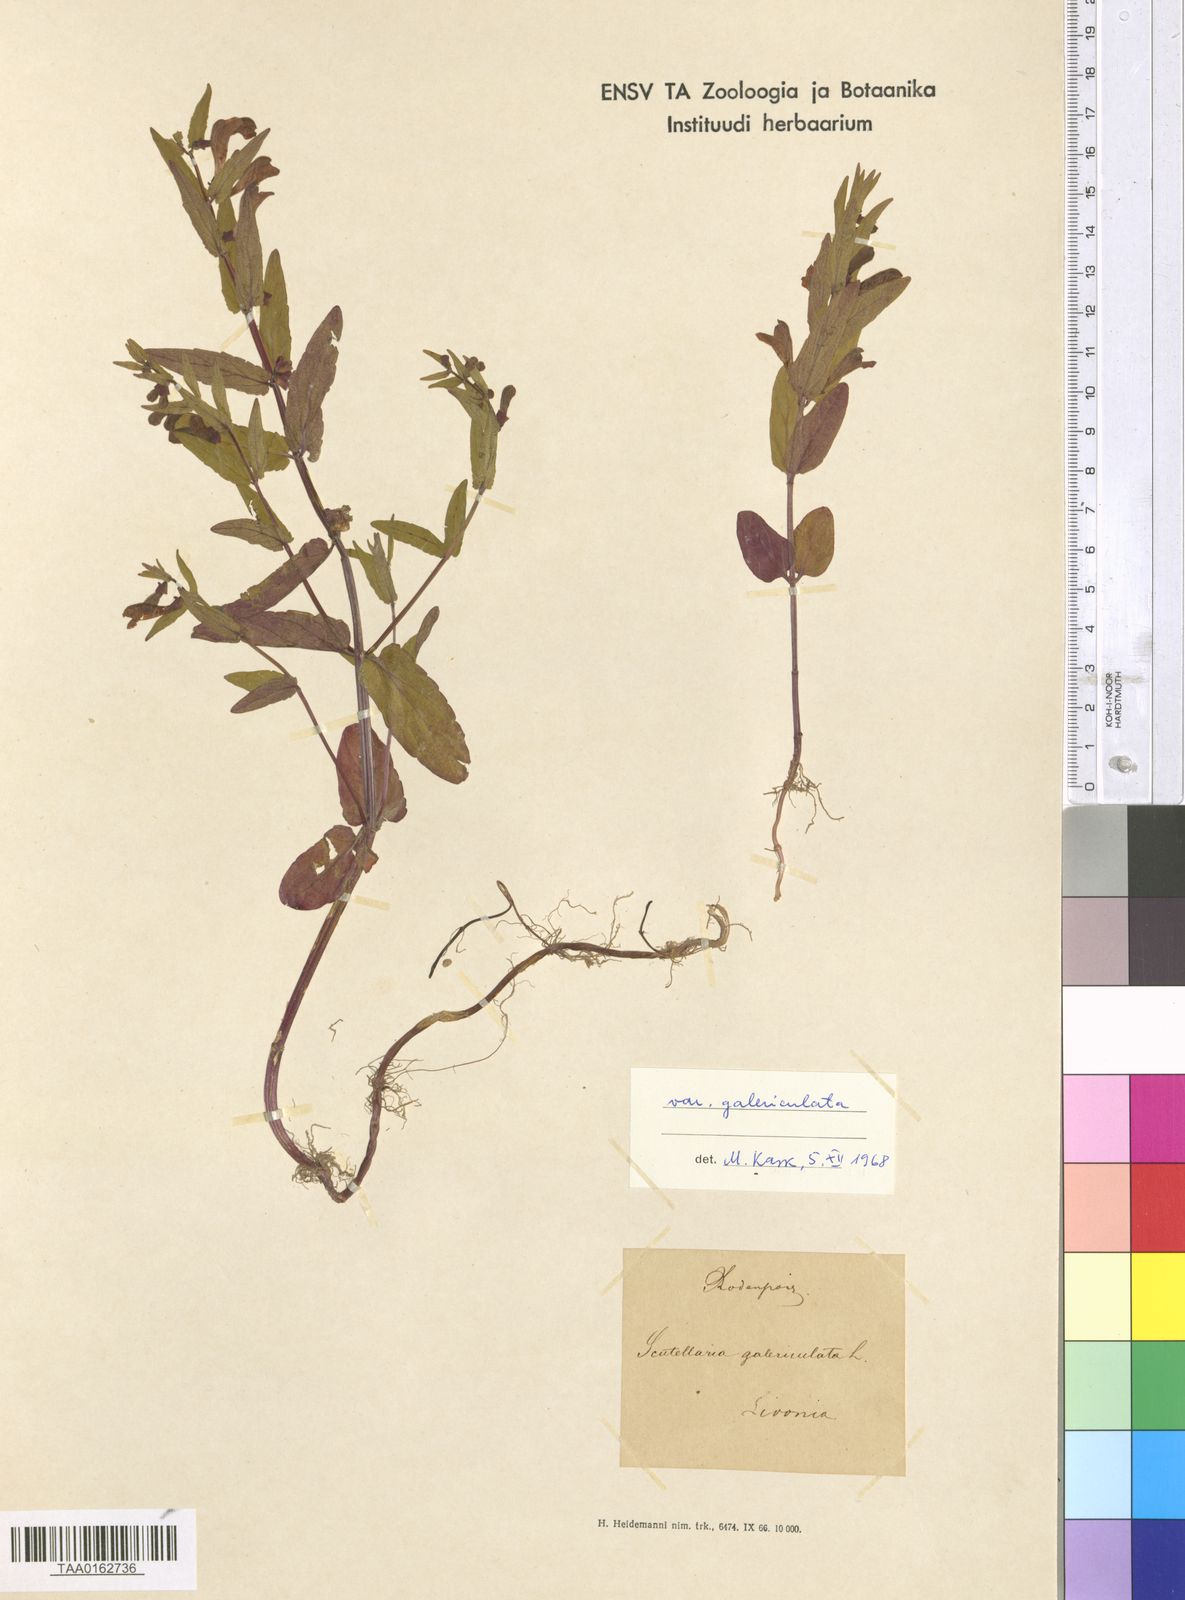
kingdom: Plantae
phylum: Tracheophyta
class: Magnoliopsida
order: Lamiales
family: Lamiaceae
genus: Scutellaria
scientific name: Scutellaria galericulata
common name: Skullcap
